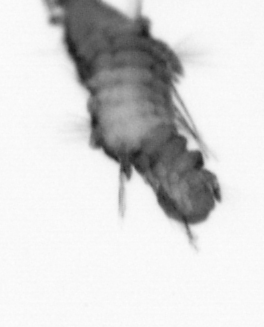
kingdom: Animalia
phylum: Annelida
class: Polychaeta
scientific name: Polychaeta
